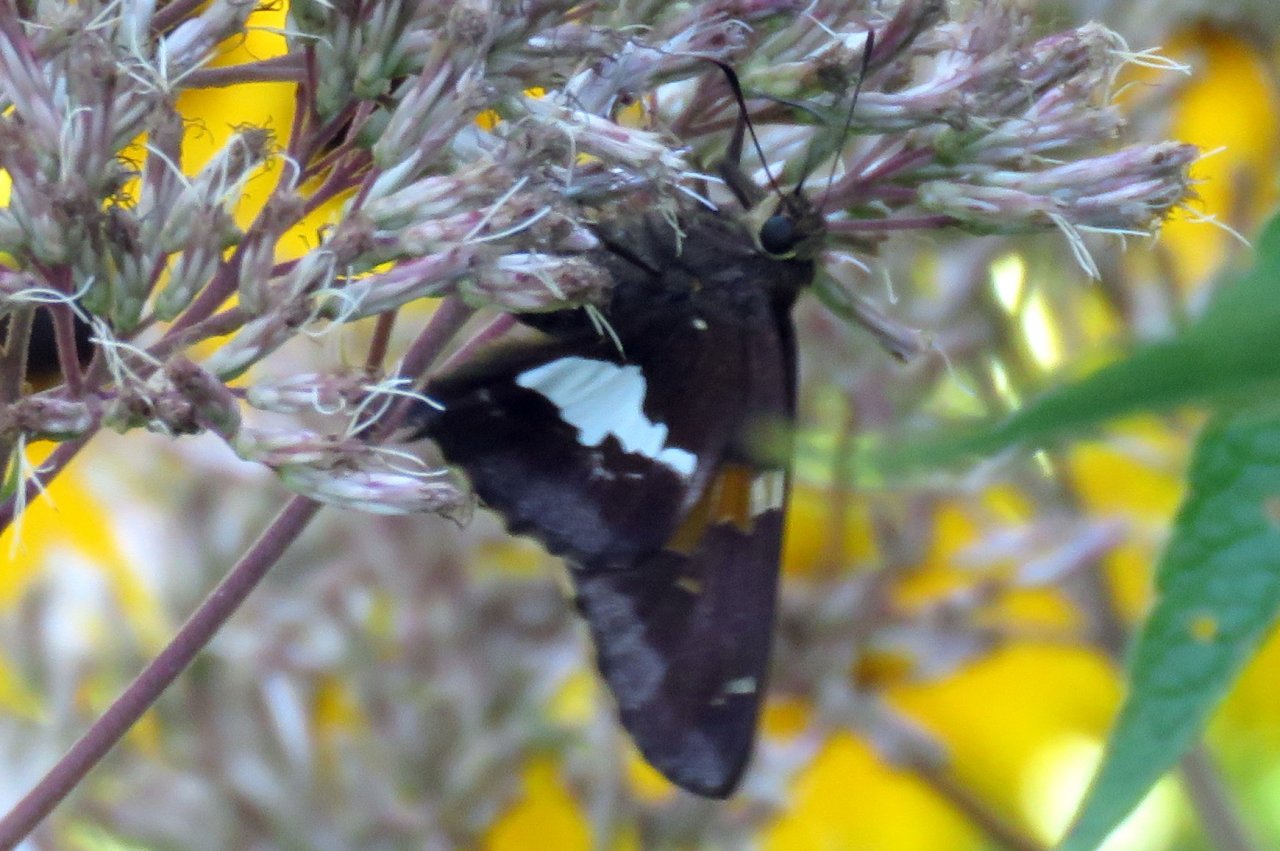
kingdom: Animalia
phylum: Arthropoda
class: Insecta
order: Lepidoptera
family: Hesperiidae
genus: Epargyreus
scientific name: Epargyreus clarus
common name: Silver-spotted Skipper
